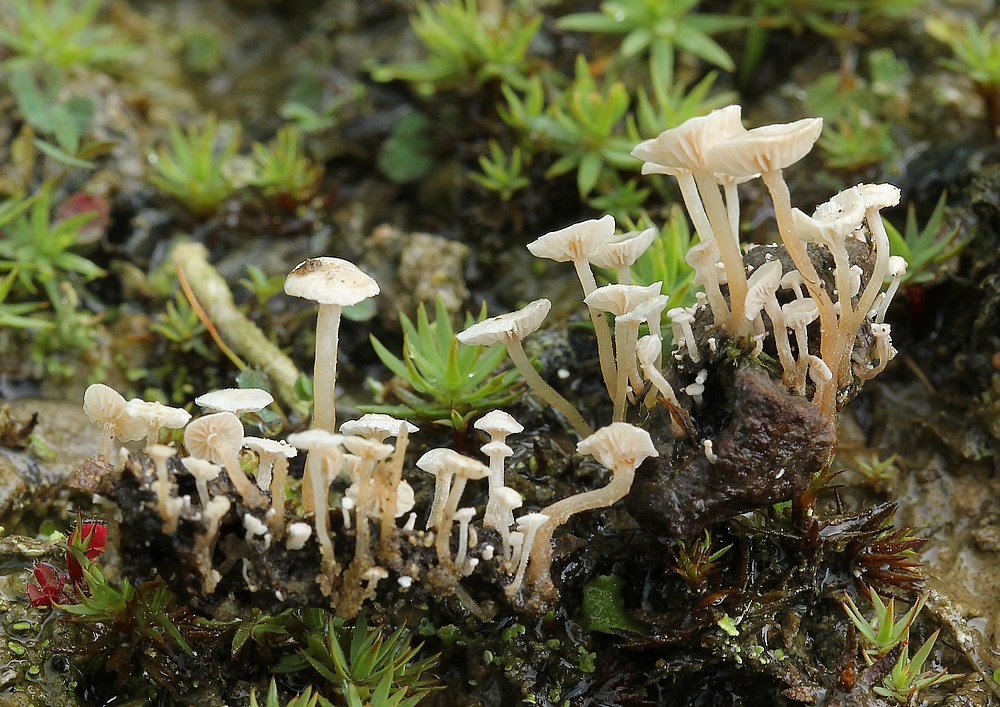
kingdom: Fungi
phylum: Basidiomycota
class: Agaricomycetes
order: Agaricales
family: Tricholomataceae
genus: Collybia
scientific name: Collybia cirrhata
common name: silke-lighat
